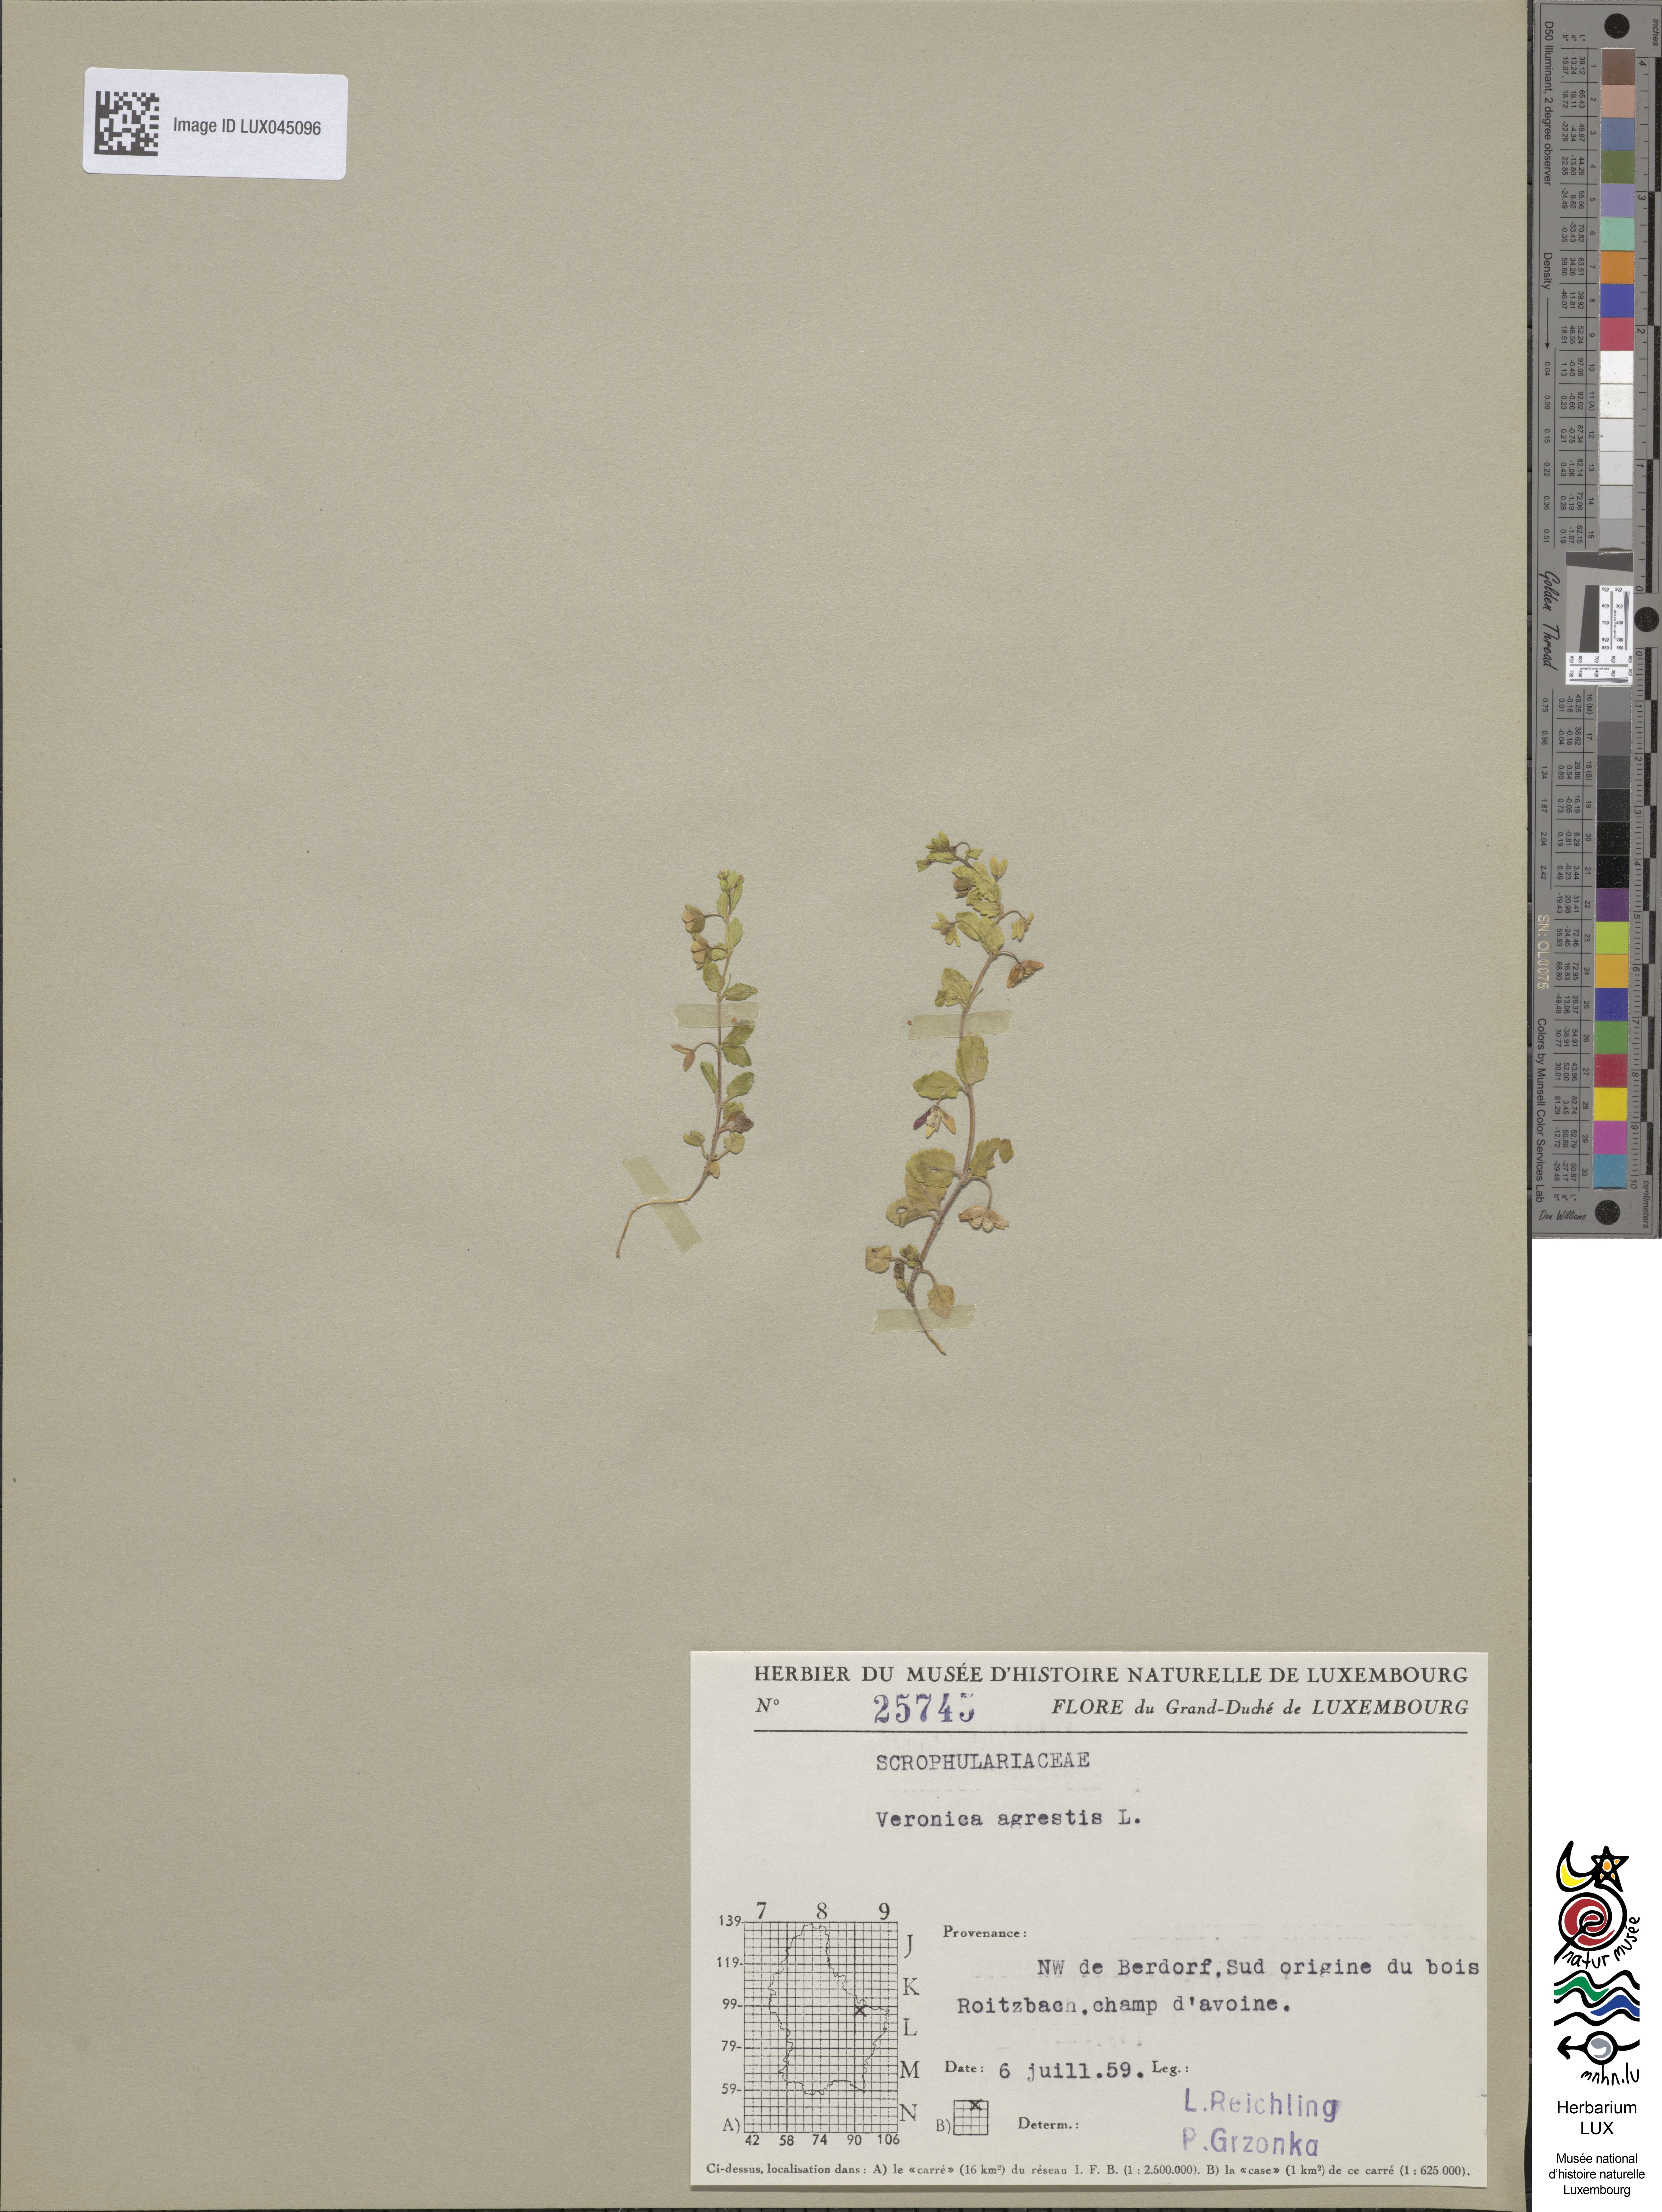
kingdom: Plantae
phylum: Tracheophyta
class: Magnoliopsida
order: Lamiales
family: Plantaginaceae
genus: Veronica
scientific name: Veronica agrestis
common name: Green field-speedwell
